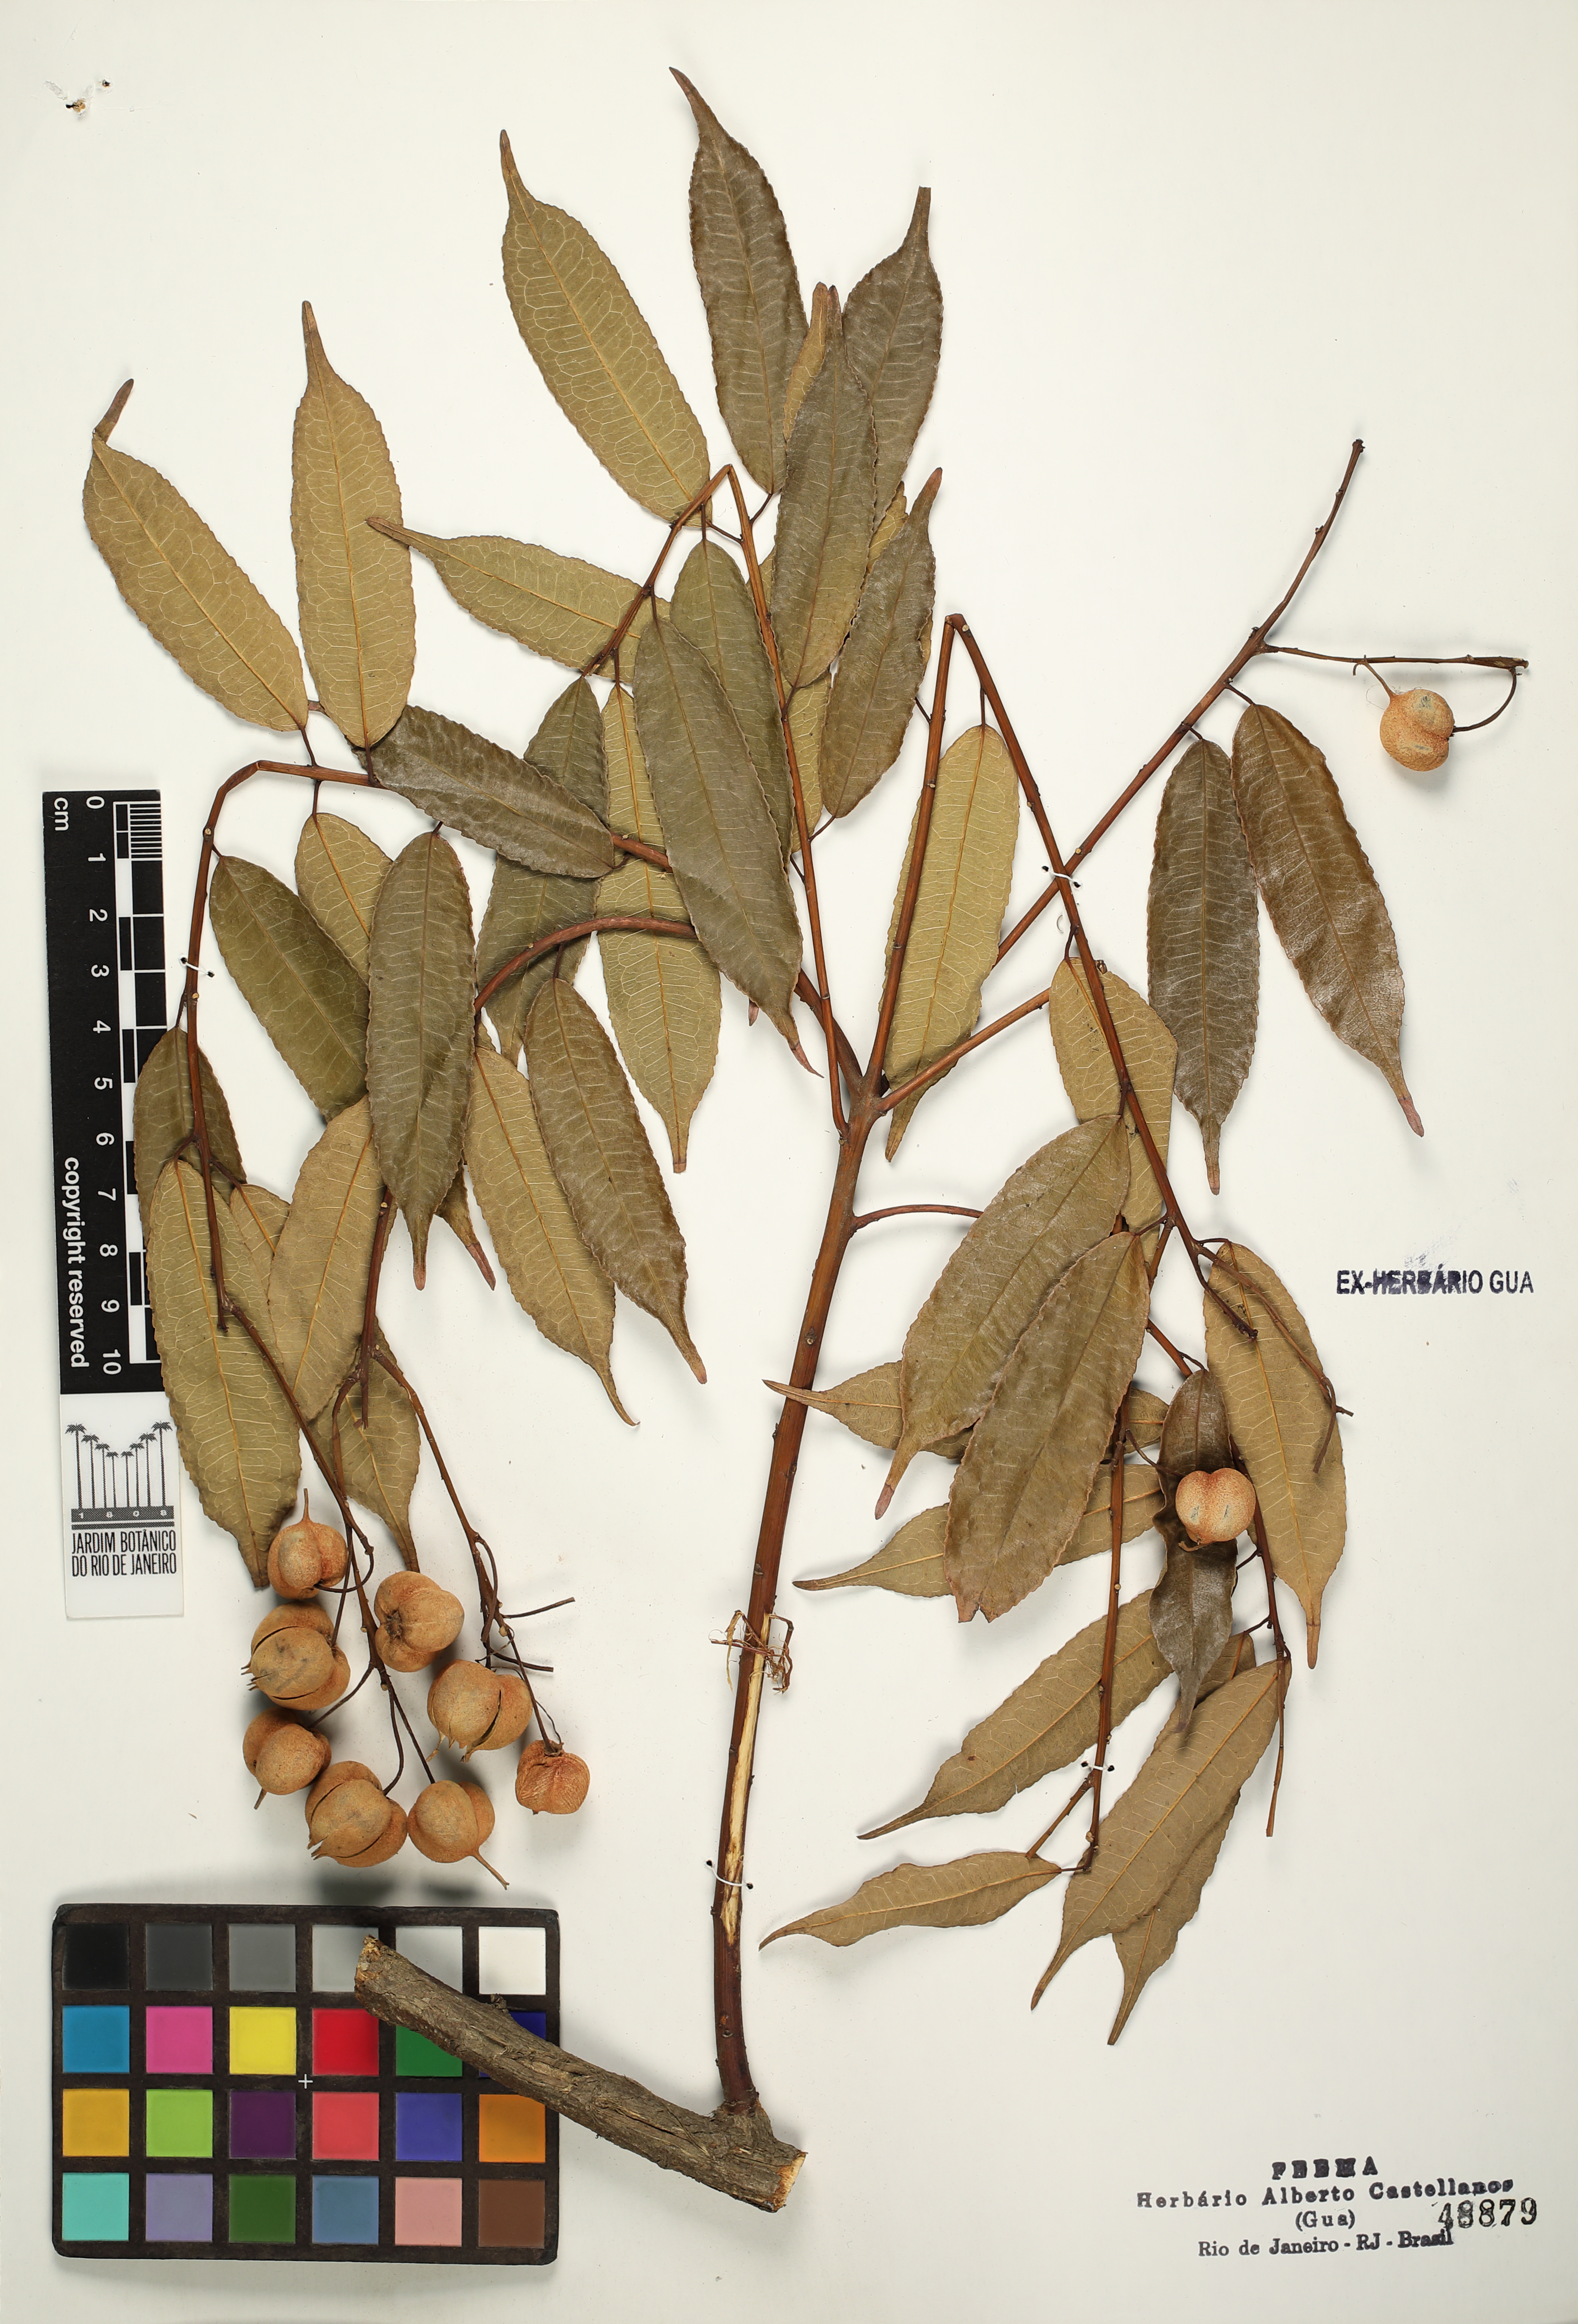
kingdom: Plantae
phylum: Tracheophyta
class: Magnoliopsida
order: Malpighiales
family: Euphorbiaceae
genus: Mabea
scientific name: Mabea piriri
